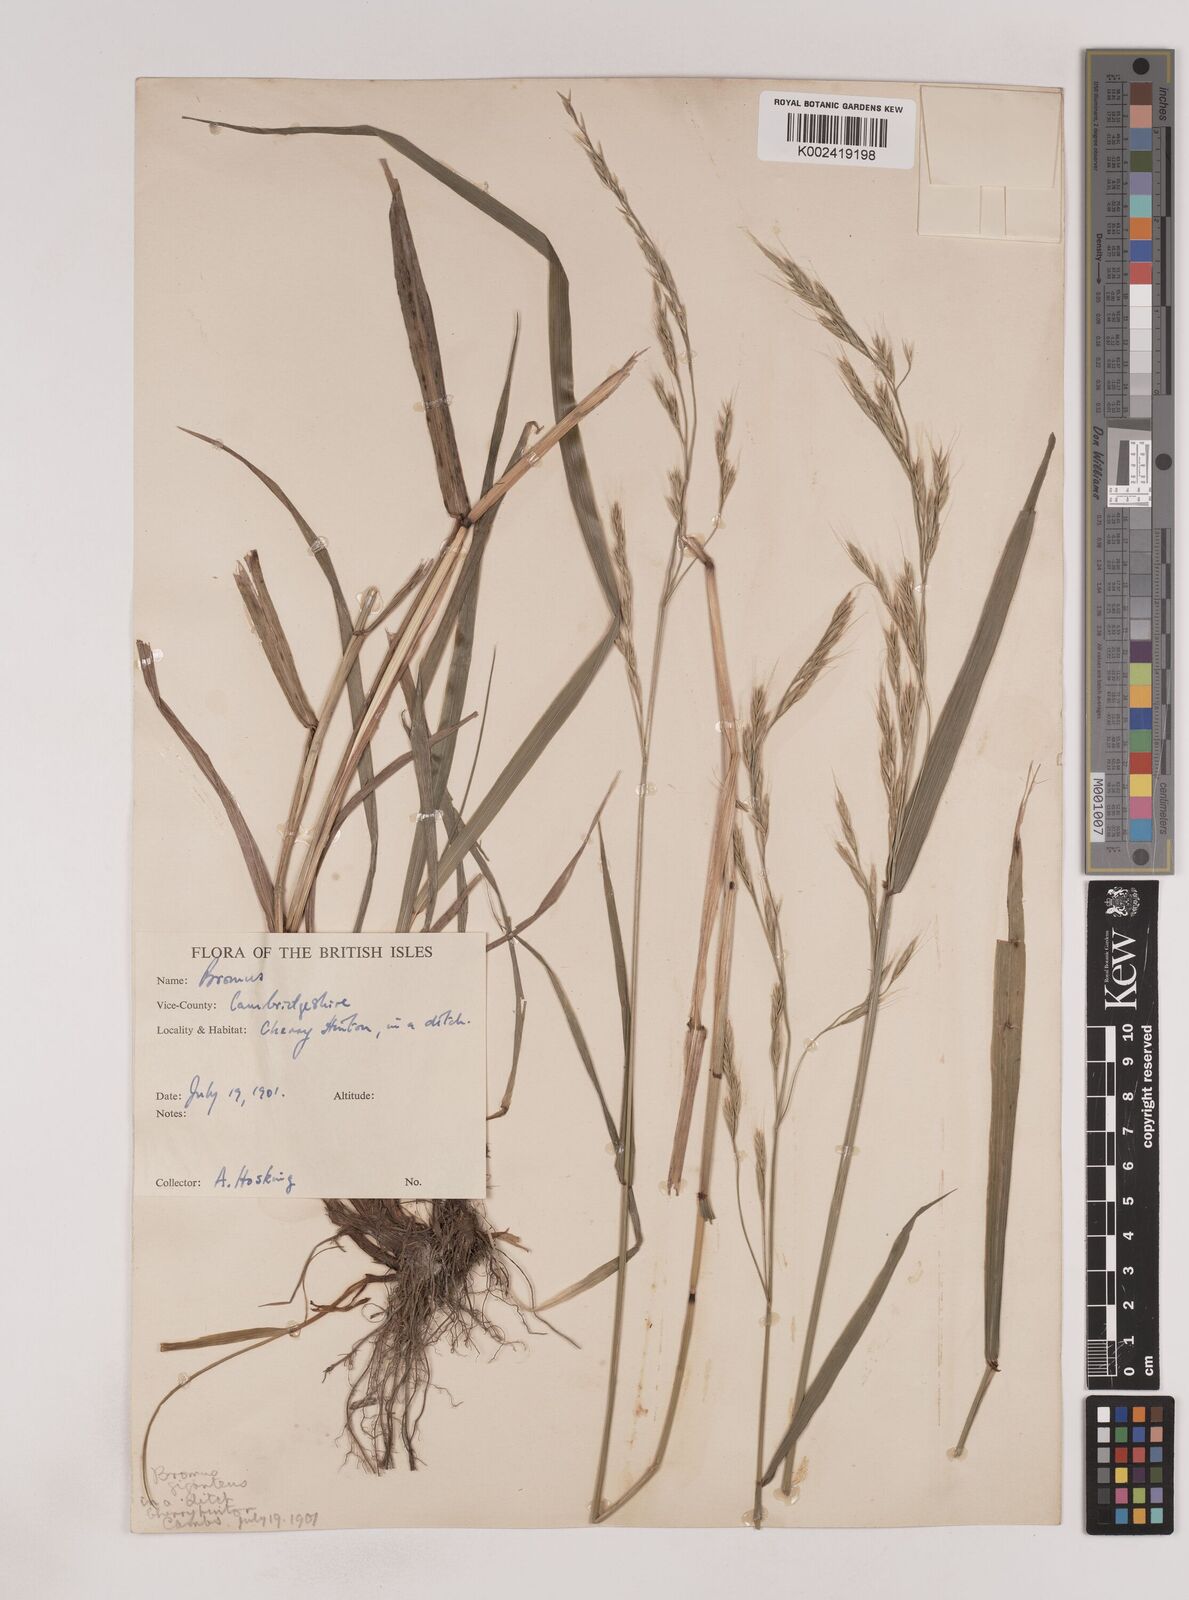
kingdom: Plantae
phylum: Tracheophyta
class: Liliopsida
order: Poales
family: Poaceae
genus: Lolium
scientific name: Lolium giganteum
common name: Giant fescue
